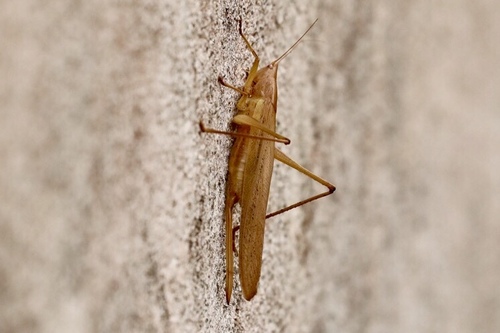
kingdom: Animalia
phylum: Arthropoda
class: Insecta
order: Orthoptera
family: Tettigoniidae
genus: Ruspolia
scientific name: Ruspolia nitidula
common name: Large conehead
